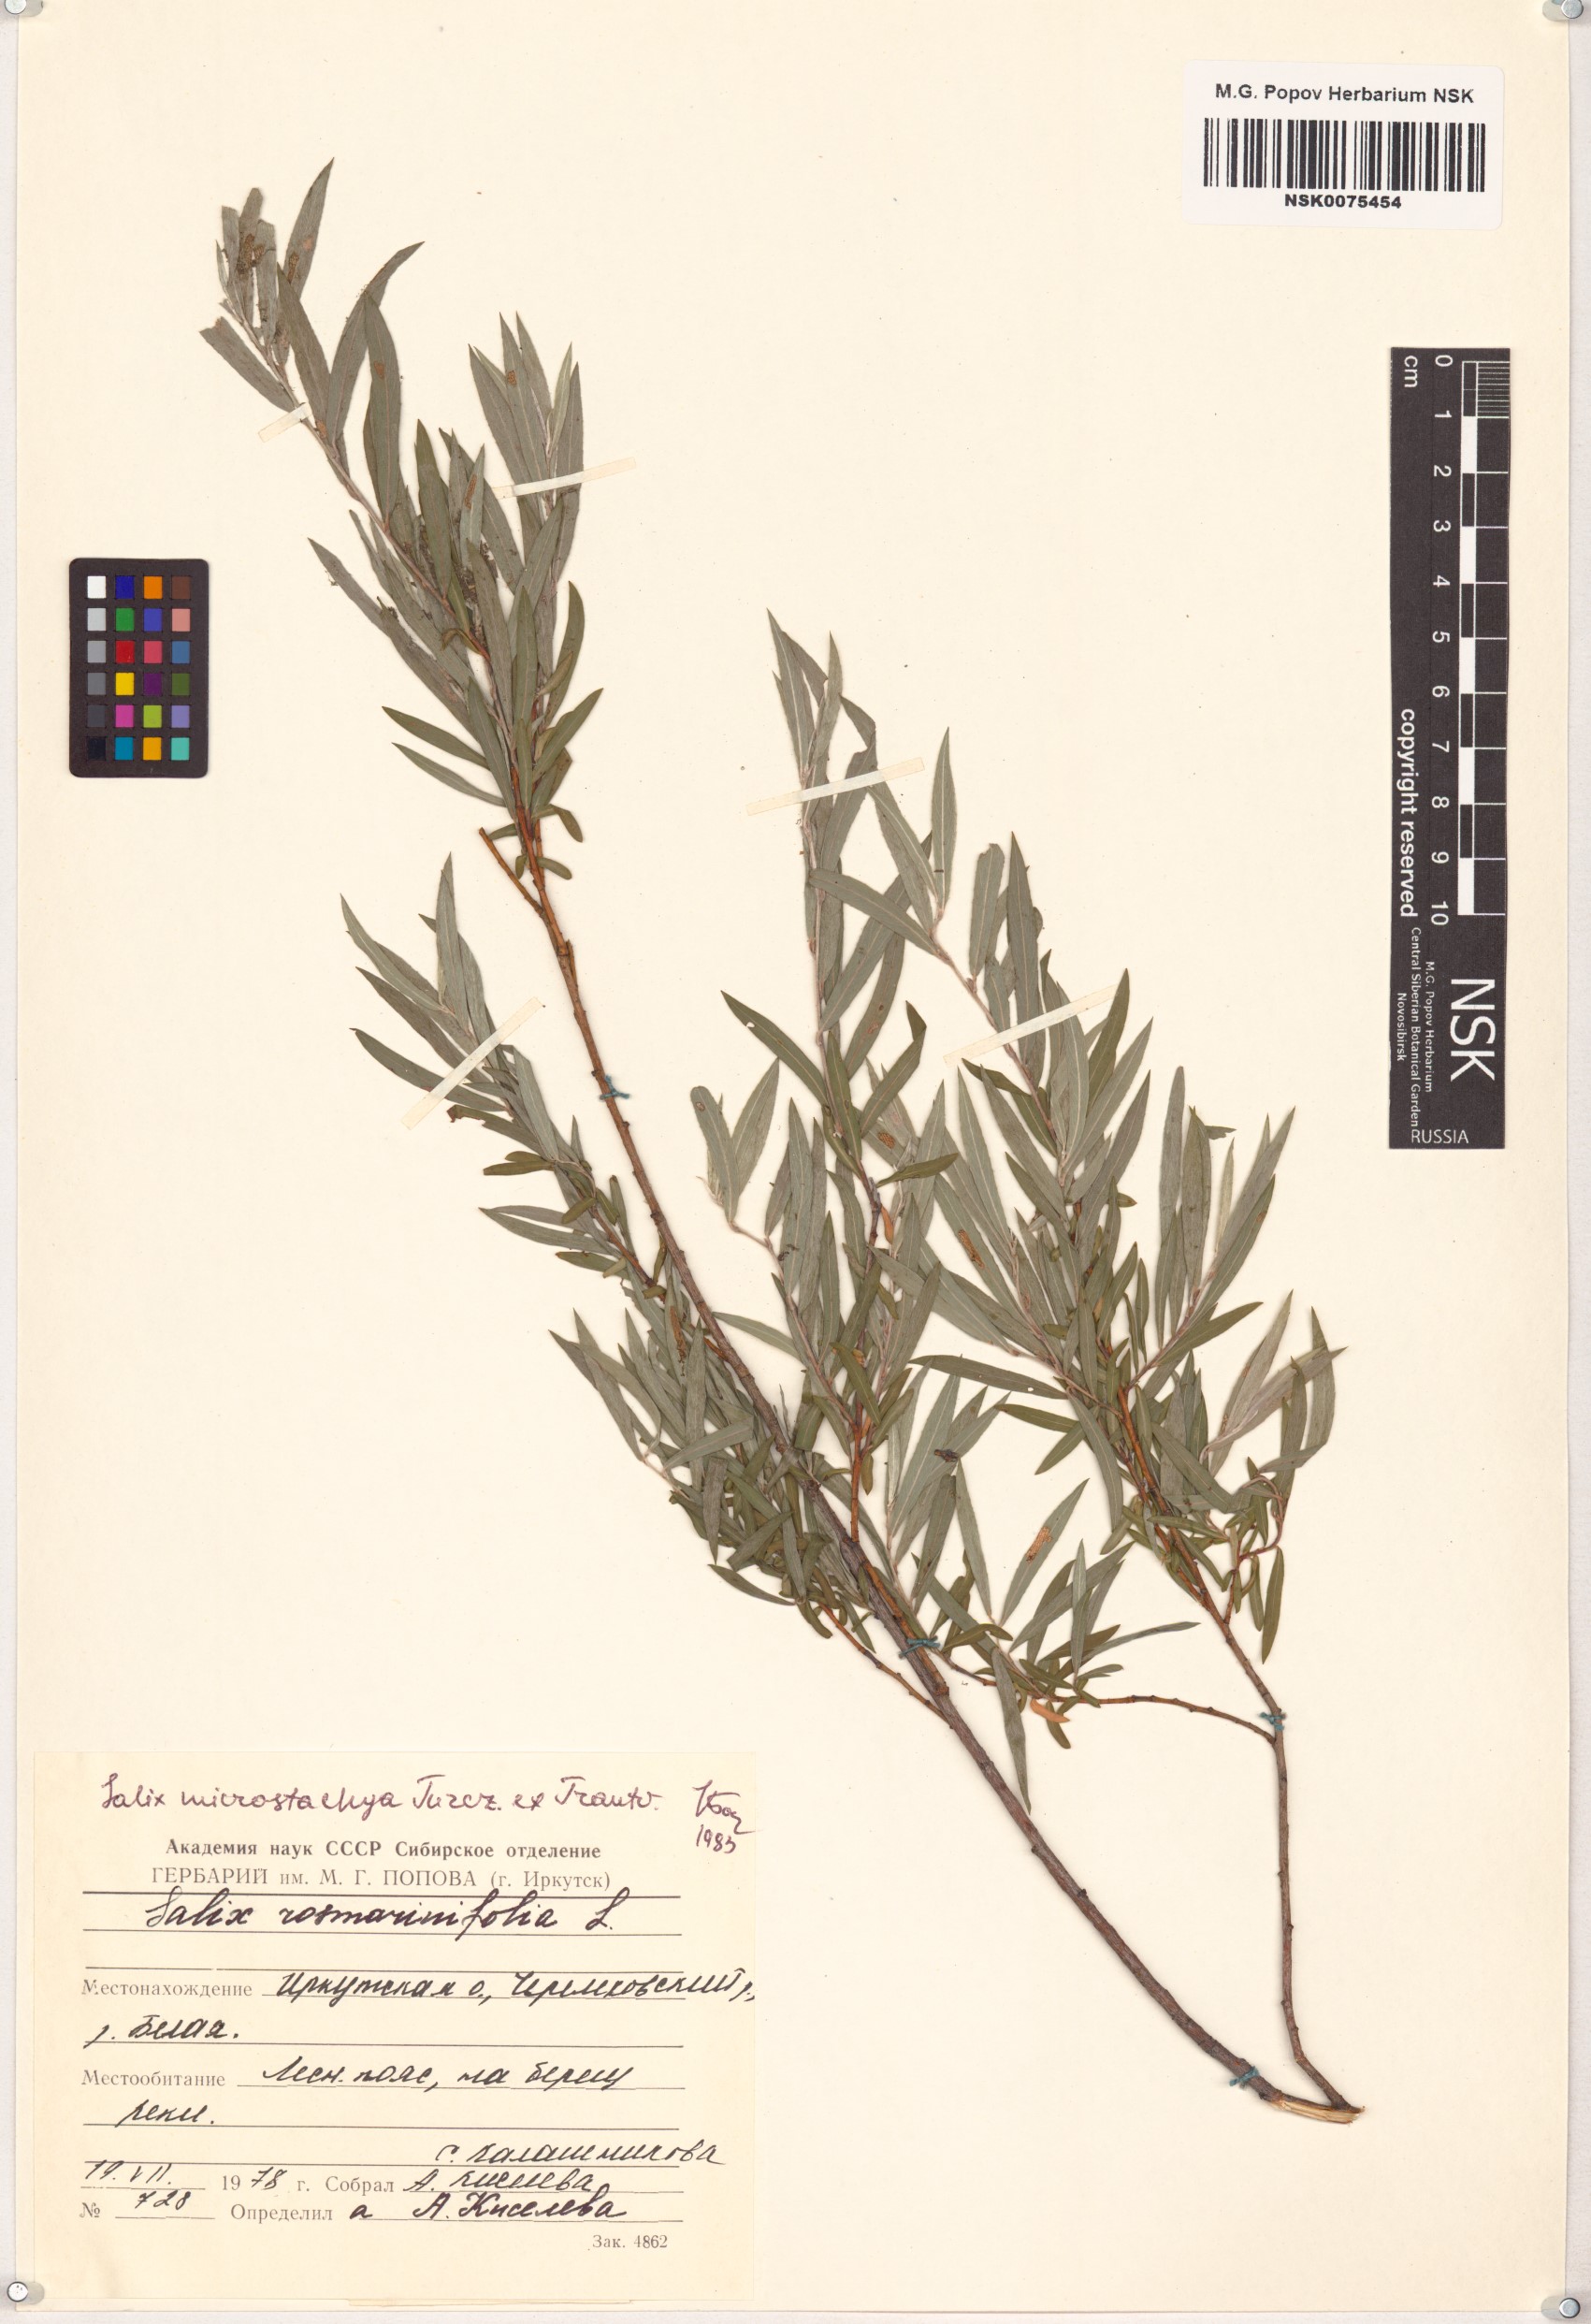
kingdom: Plantae
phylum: Tracheophyta
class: Magnoliopsida
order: Malpighiales
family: Salicaceae
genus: Salix
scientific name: Salix microstachya
